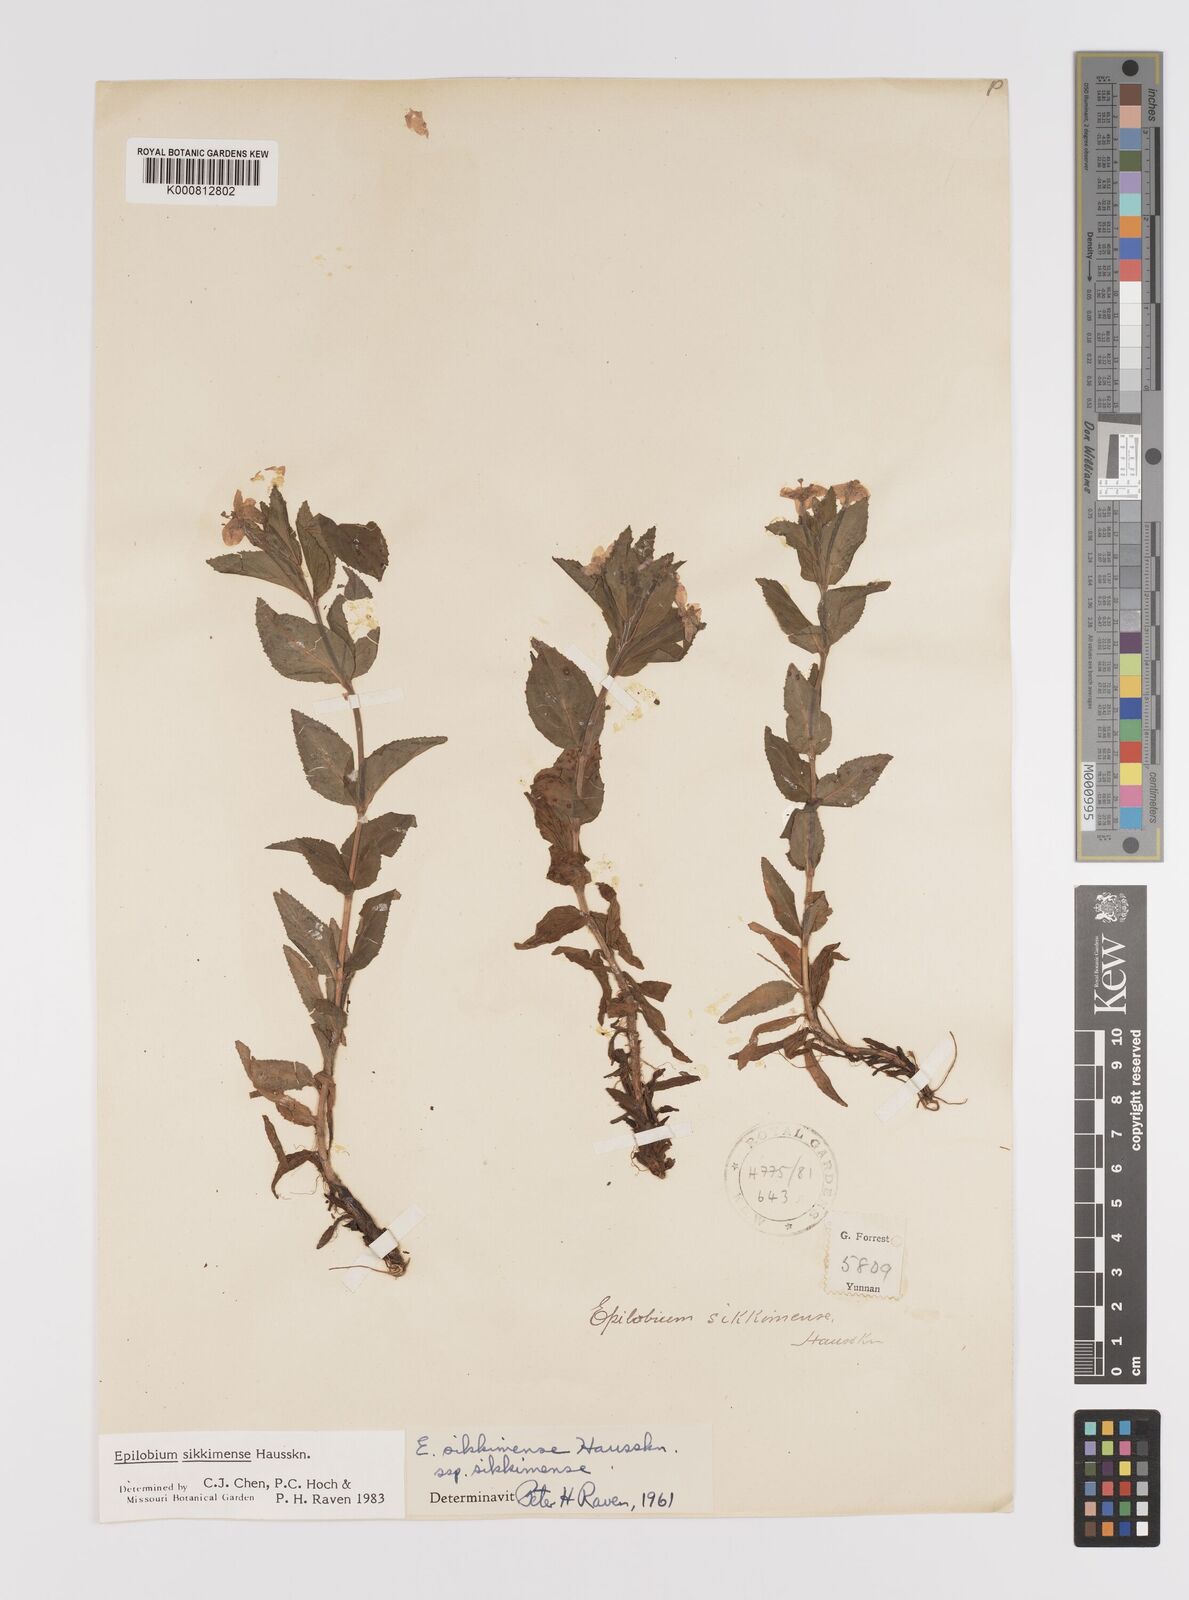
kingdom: Plantae
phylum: Tracheophyta
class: Magnoliopsida
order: Myrtales
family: Onagraceae
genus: Epilobium
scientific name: Epilobium sikkimense
